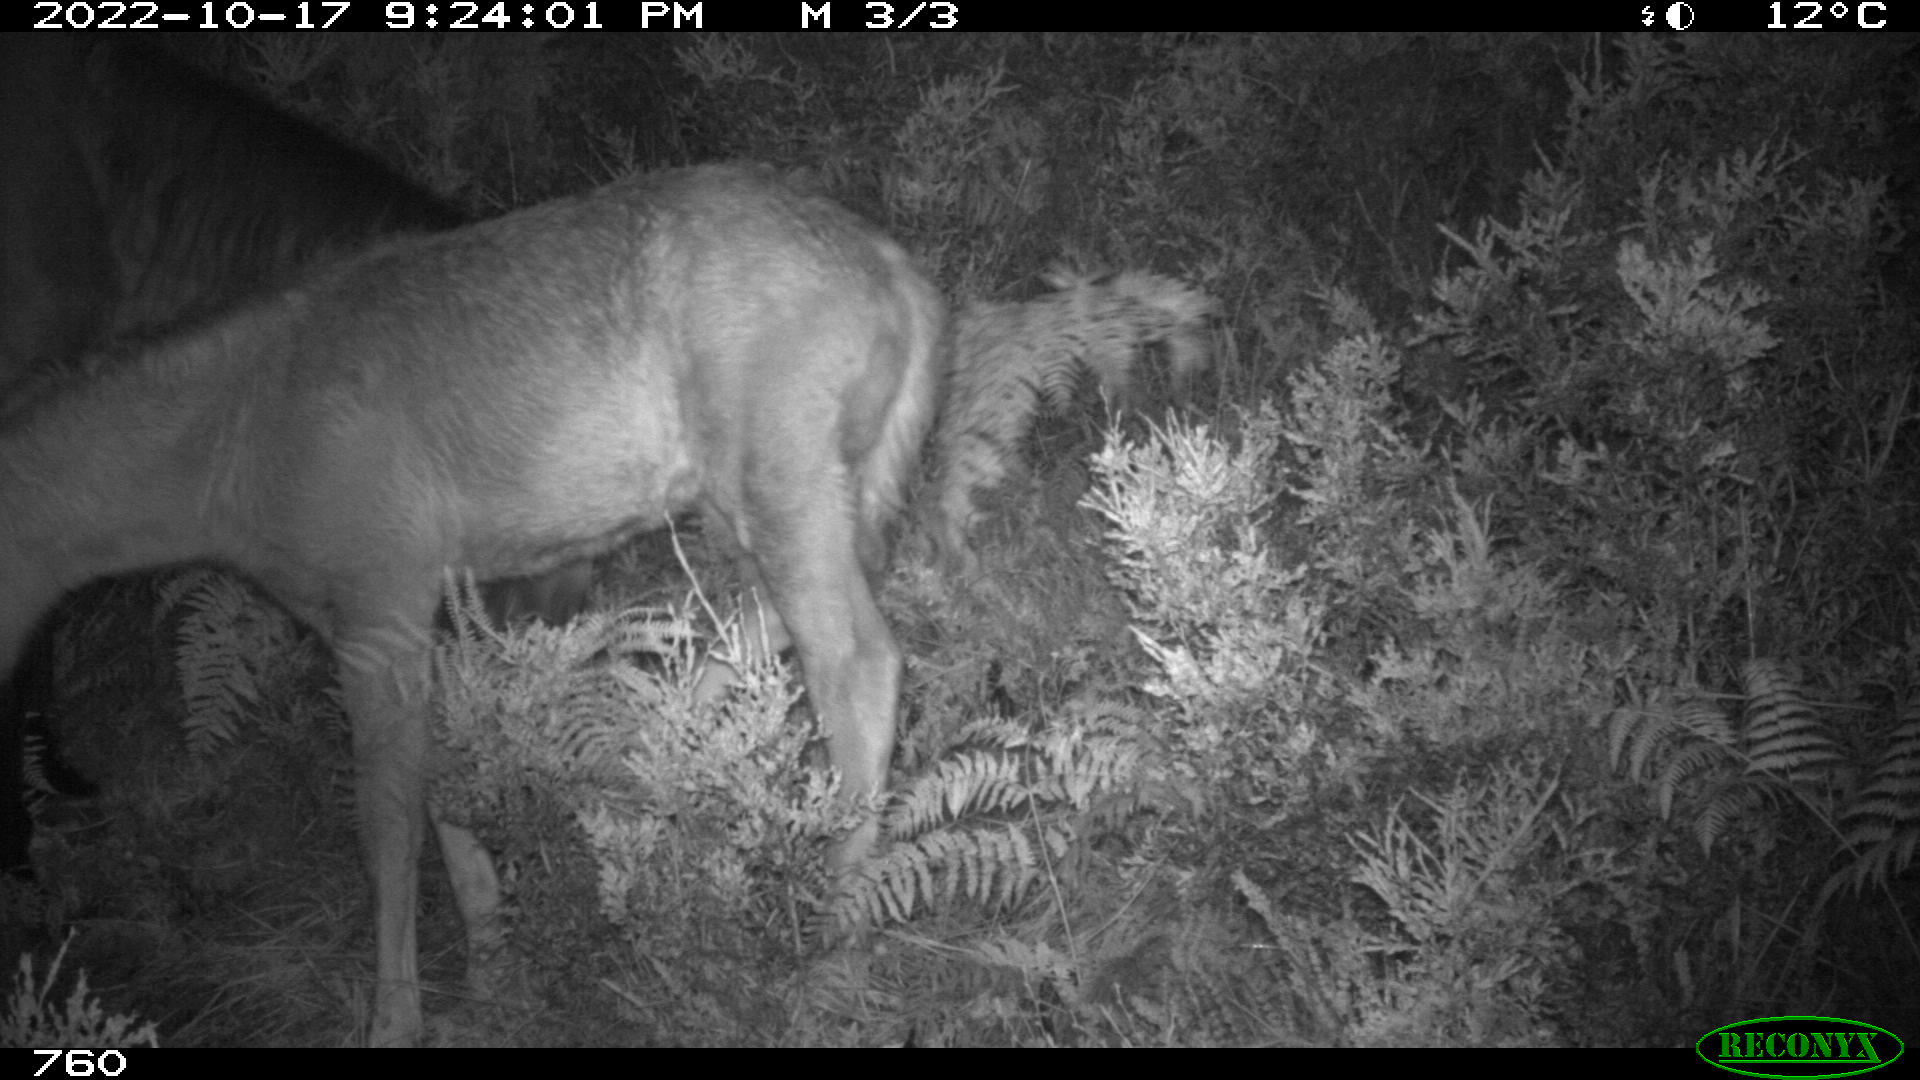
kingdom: Animalia
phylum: Chordata
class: Mammalia
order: Perissodactyla
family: Equidae
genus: Equus
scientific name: Equus caballus
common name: Horse
